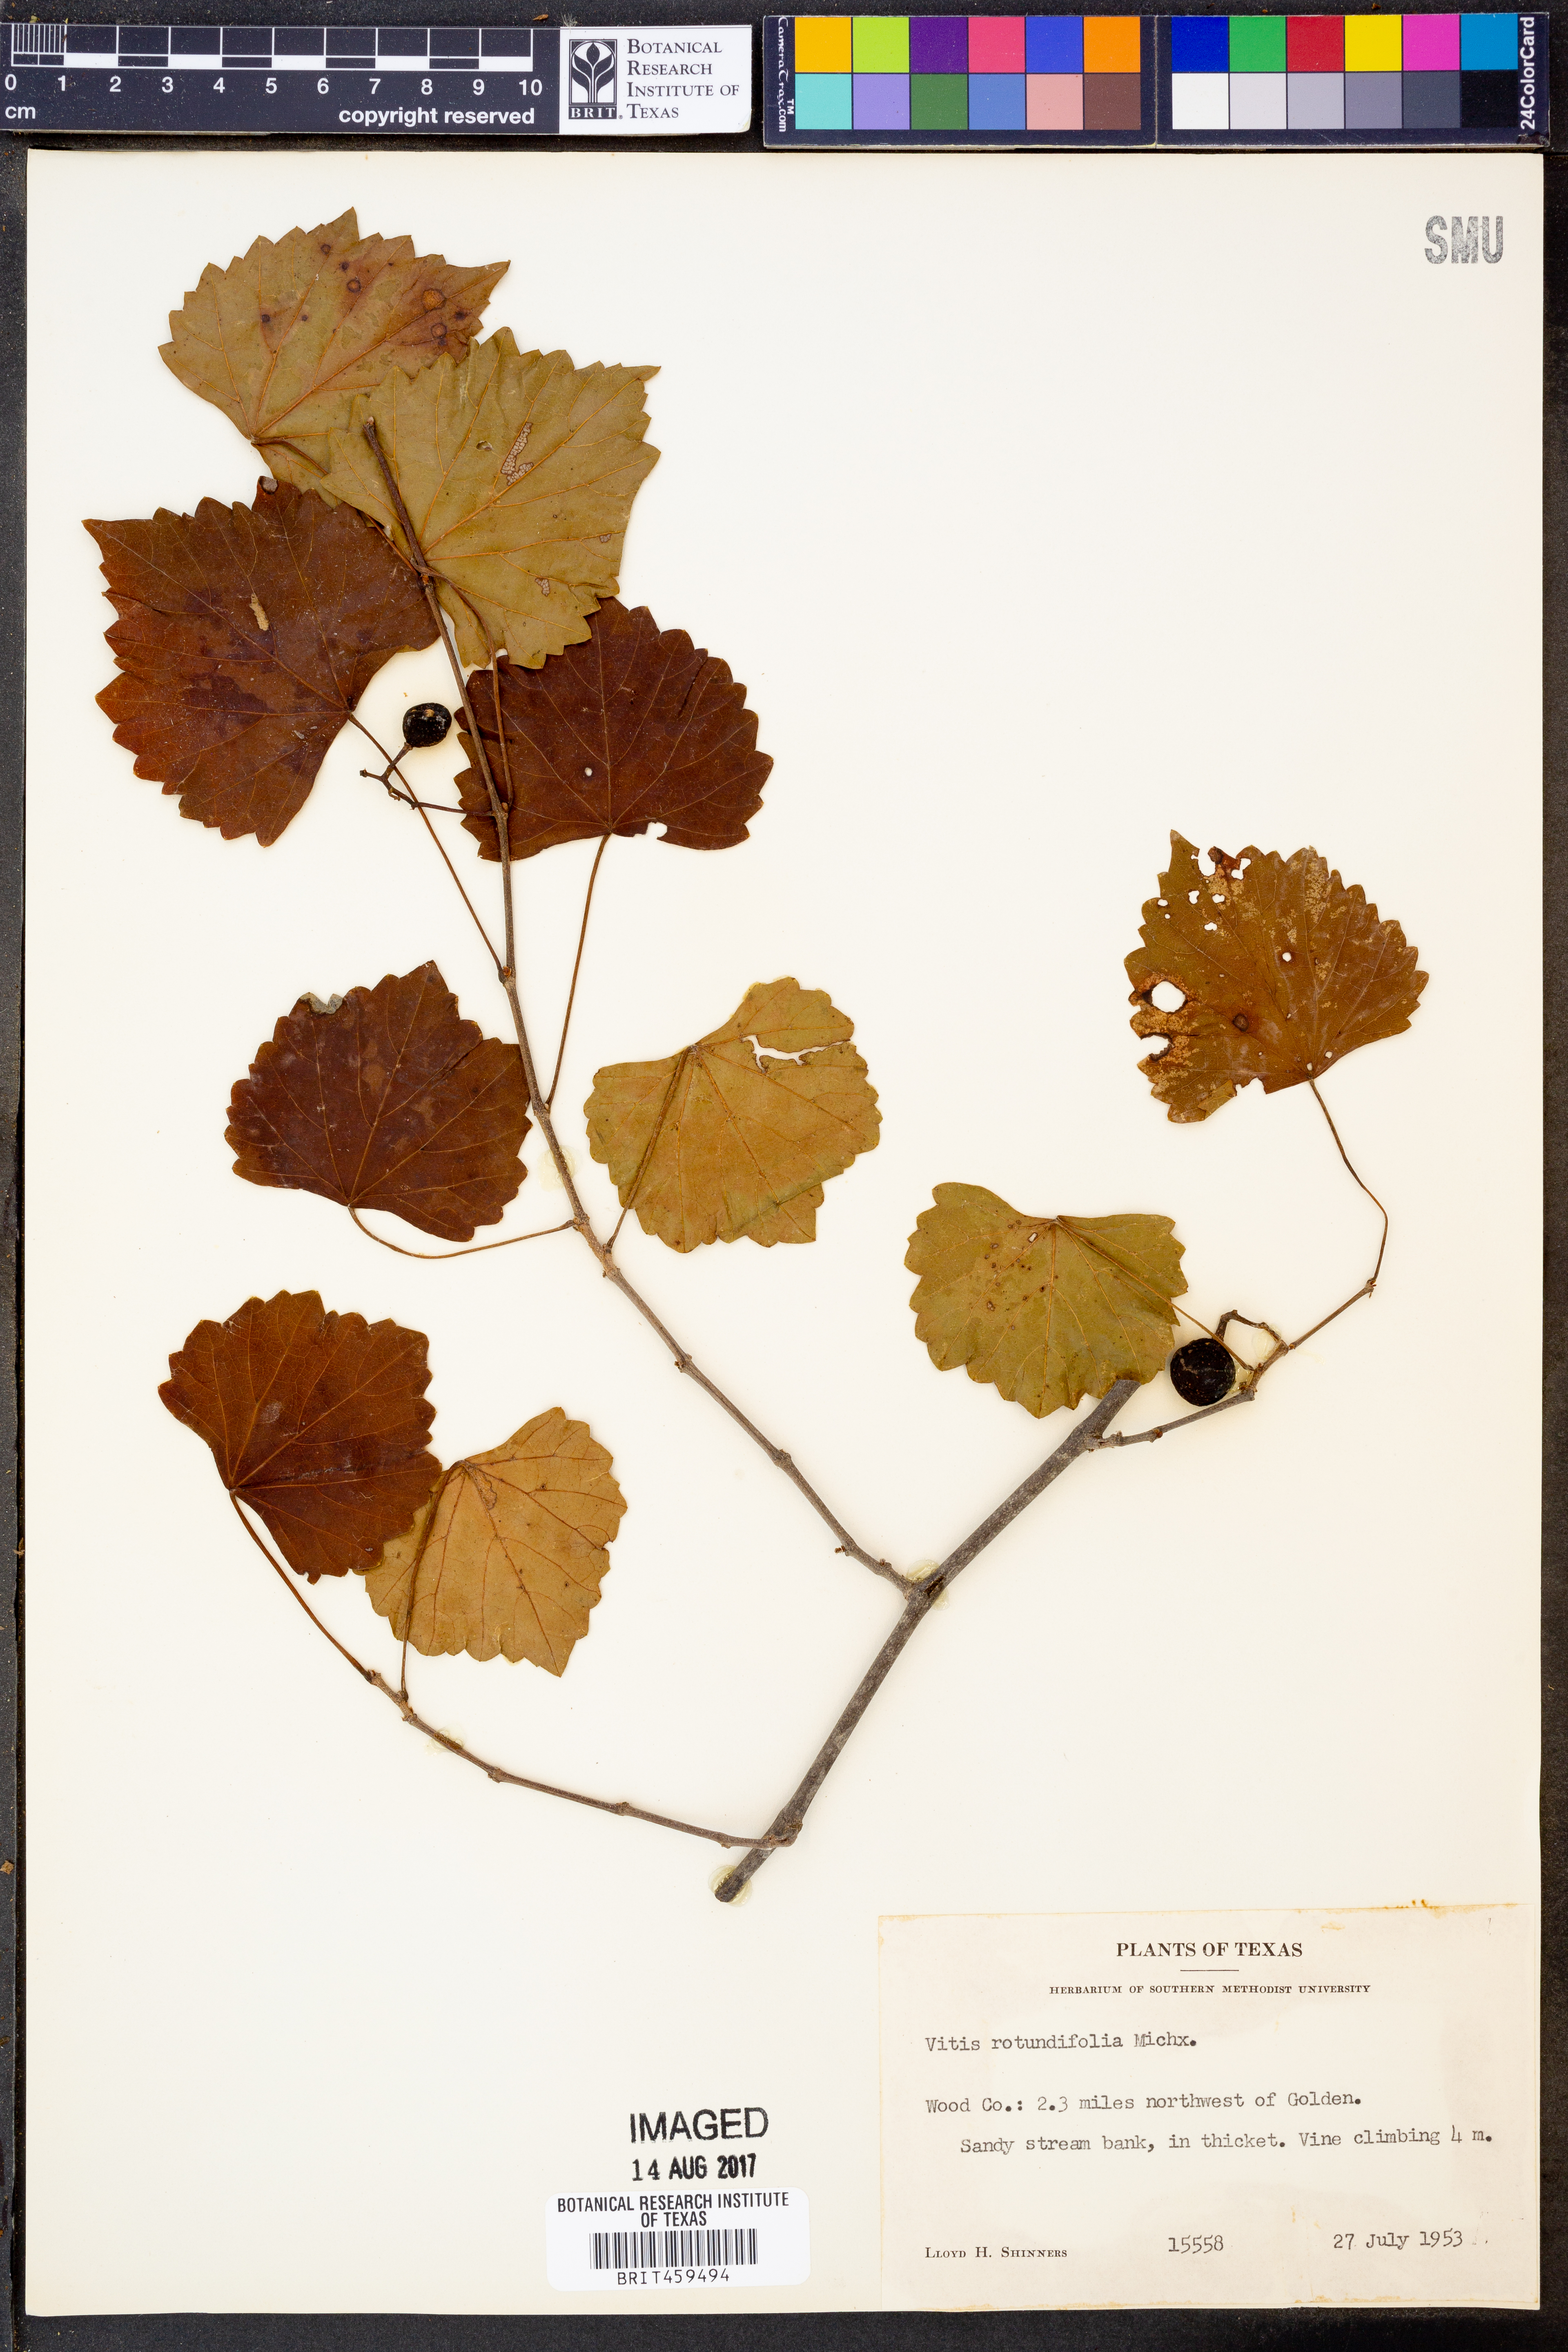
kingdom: Plantae
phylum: Tracheophyta
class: Magnoliopsida
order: Vitales
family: Vitaceae
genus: Vitis
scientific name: Vitis rotundifolia
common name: Muscadine grape
